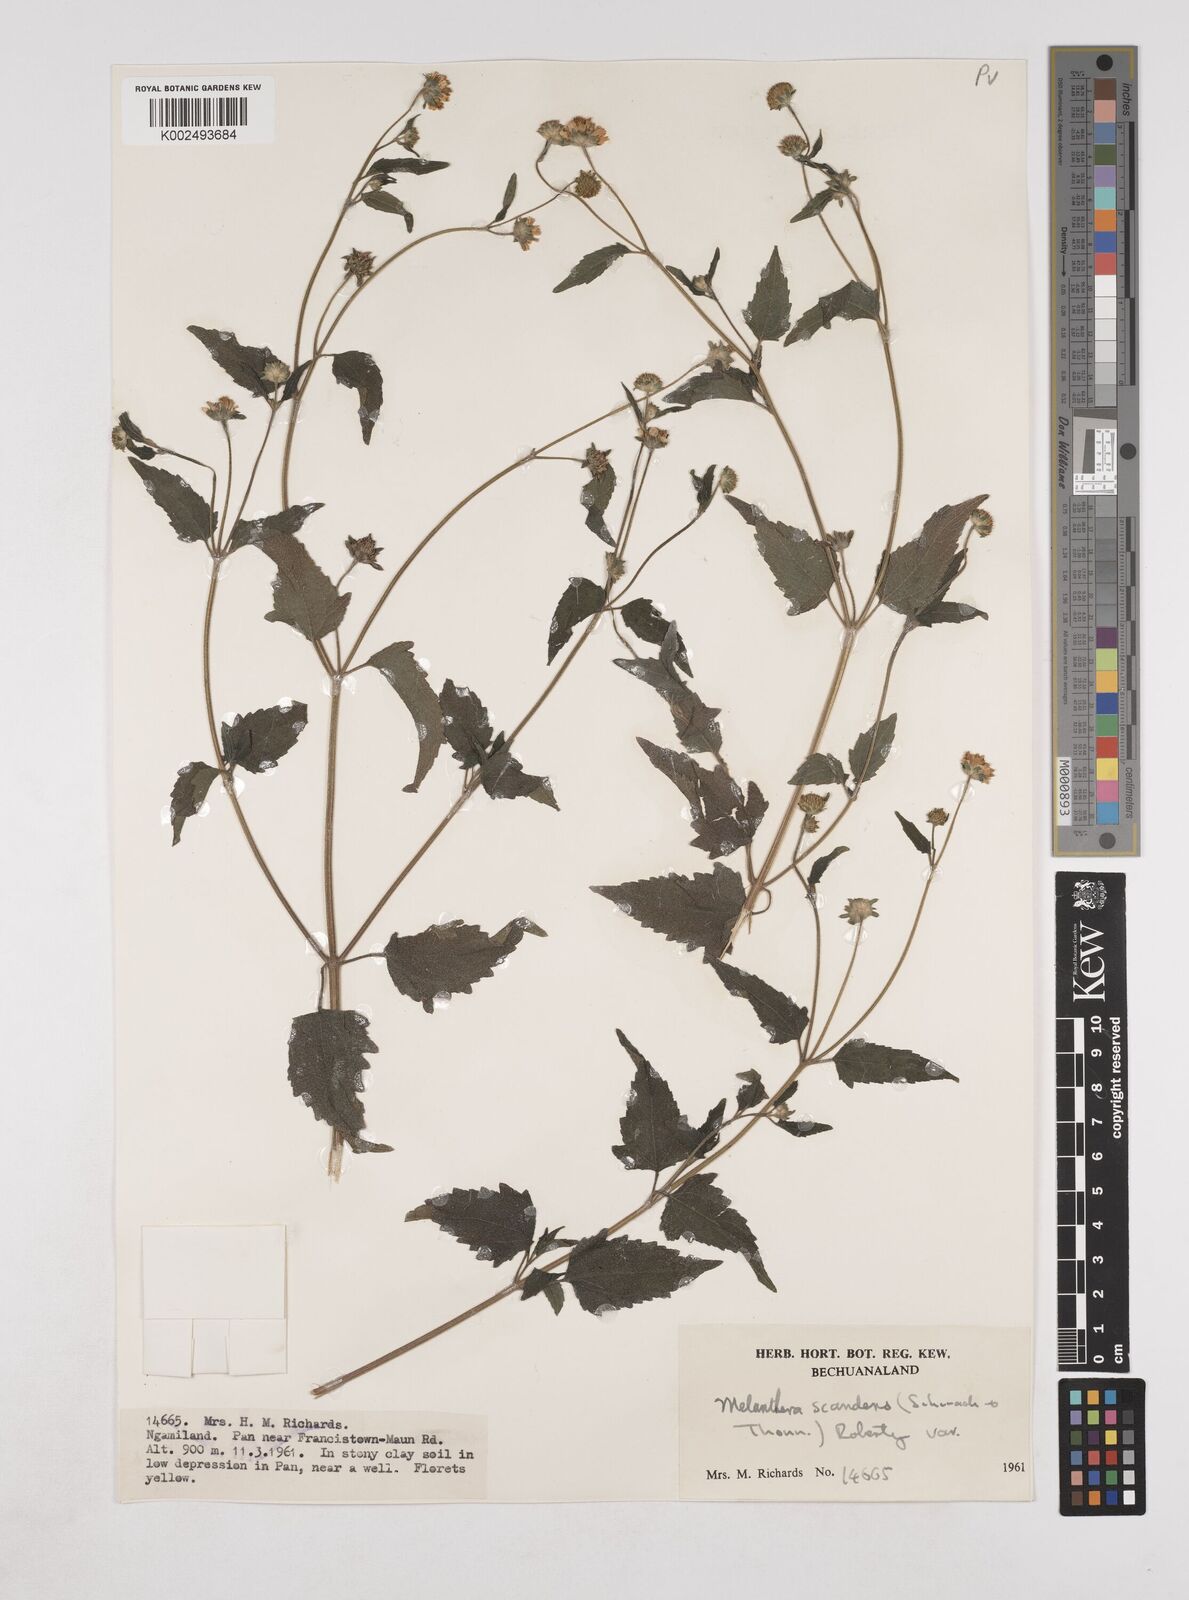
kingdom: Plantae
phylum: Tracheophyta
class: Magnoliopsida
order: Asterales
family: Asteraceae
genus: Lipotriche
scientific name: Lipotriche marlothiana
